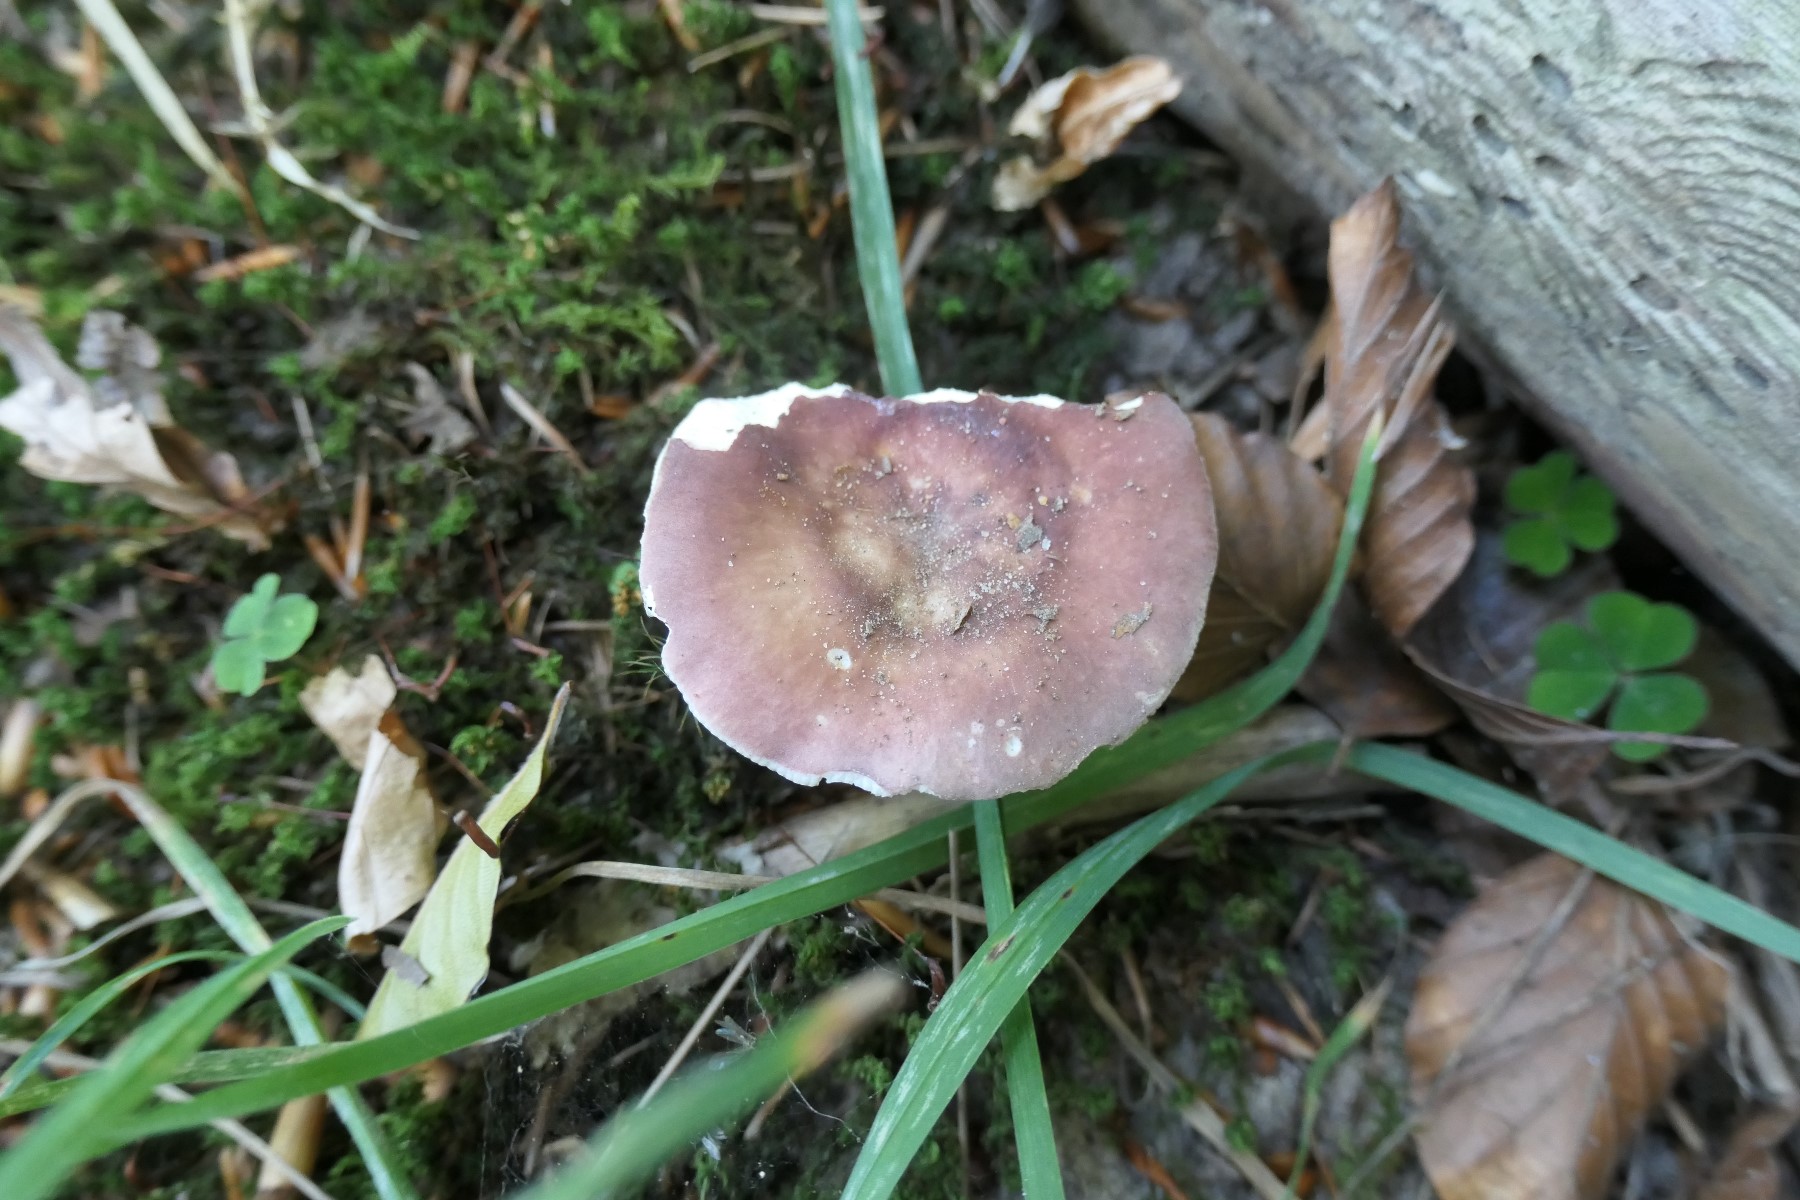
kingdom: Fungi
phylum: Basidiomycota
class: Agaricomycetes
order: Russulales
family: Russulaceae
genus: Russula
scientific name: Russula vesca
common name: spiselig skørhat
